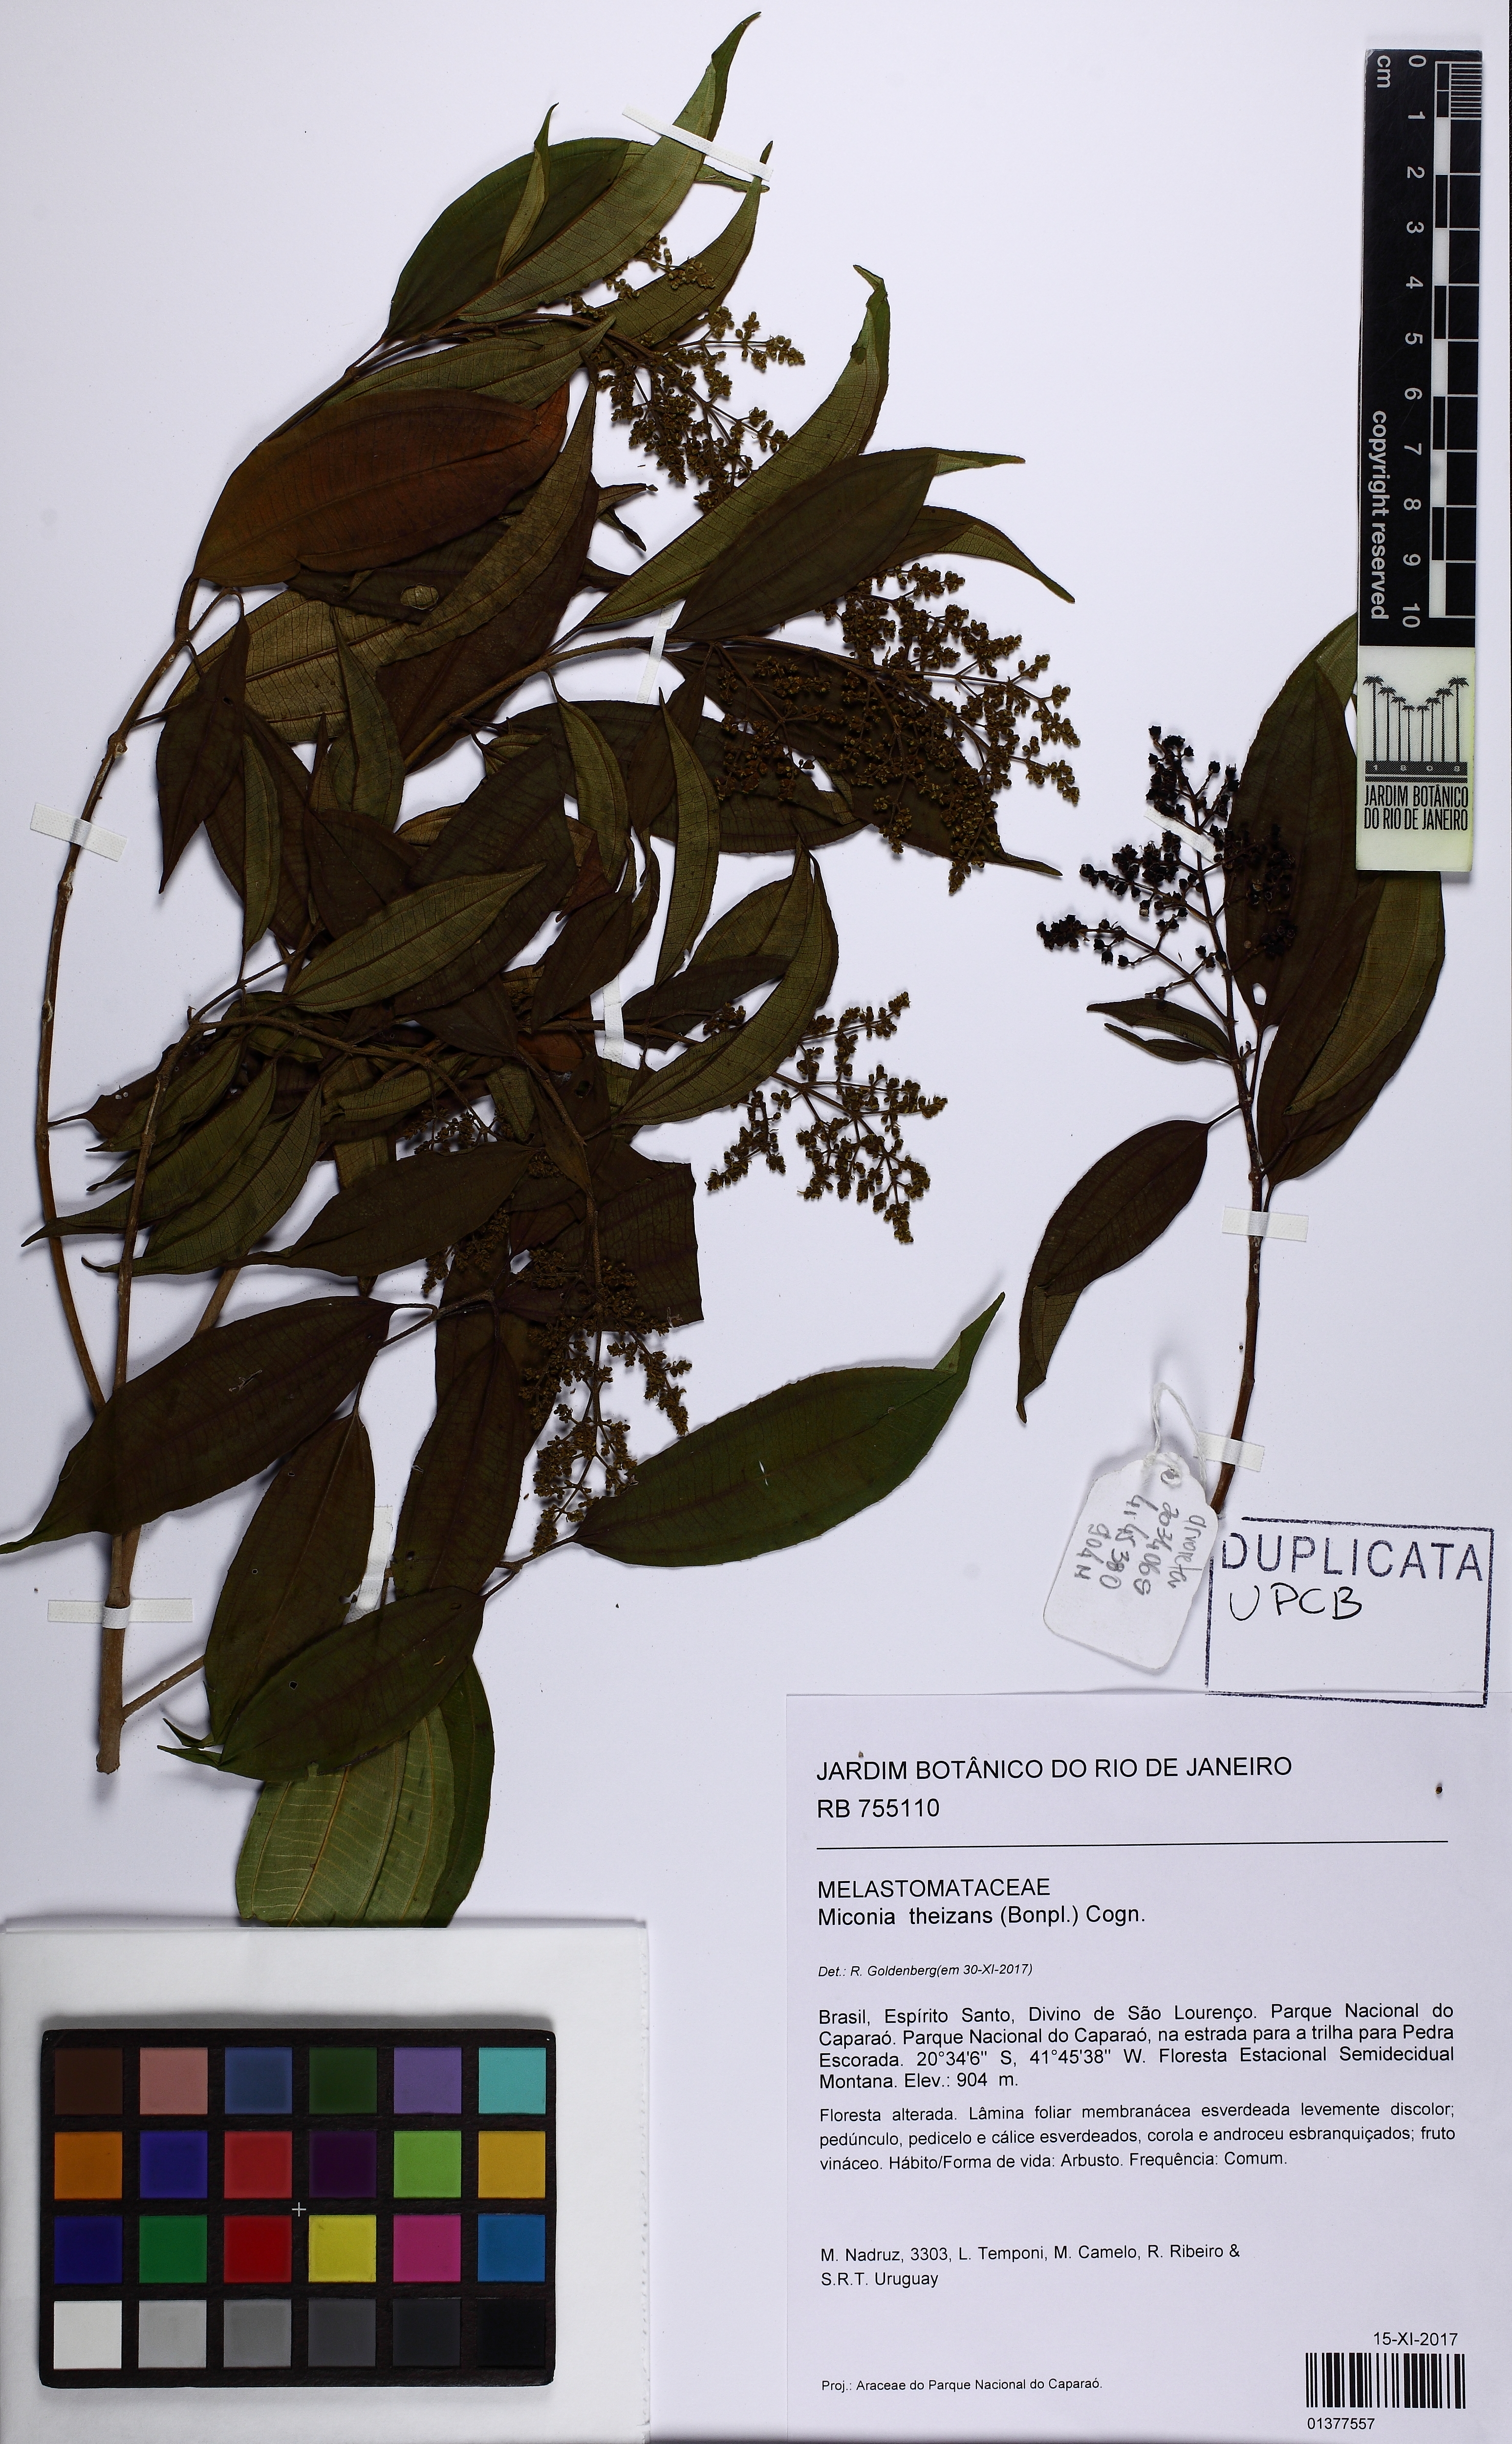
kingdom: Plantae
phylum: Tracheophyta
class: Magnoliopsida
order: Myrtales
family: Melastomataceae
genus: Miconia
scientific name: Miconia theizans
